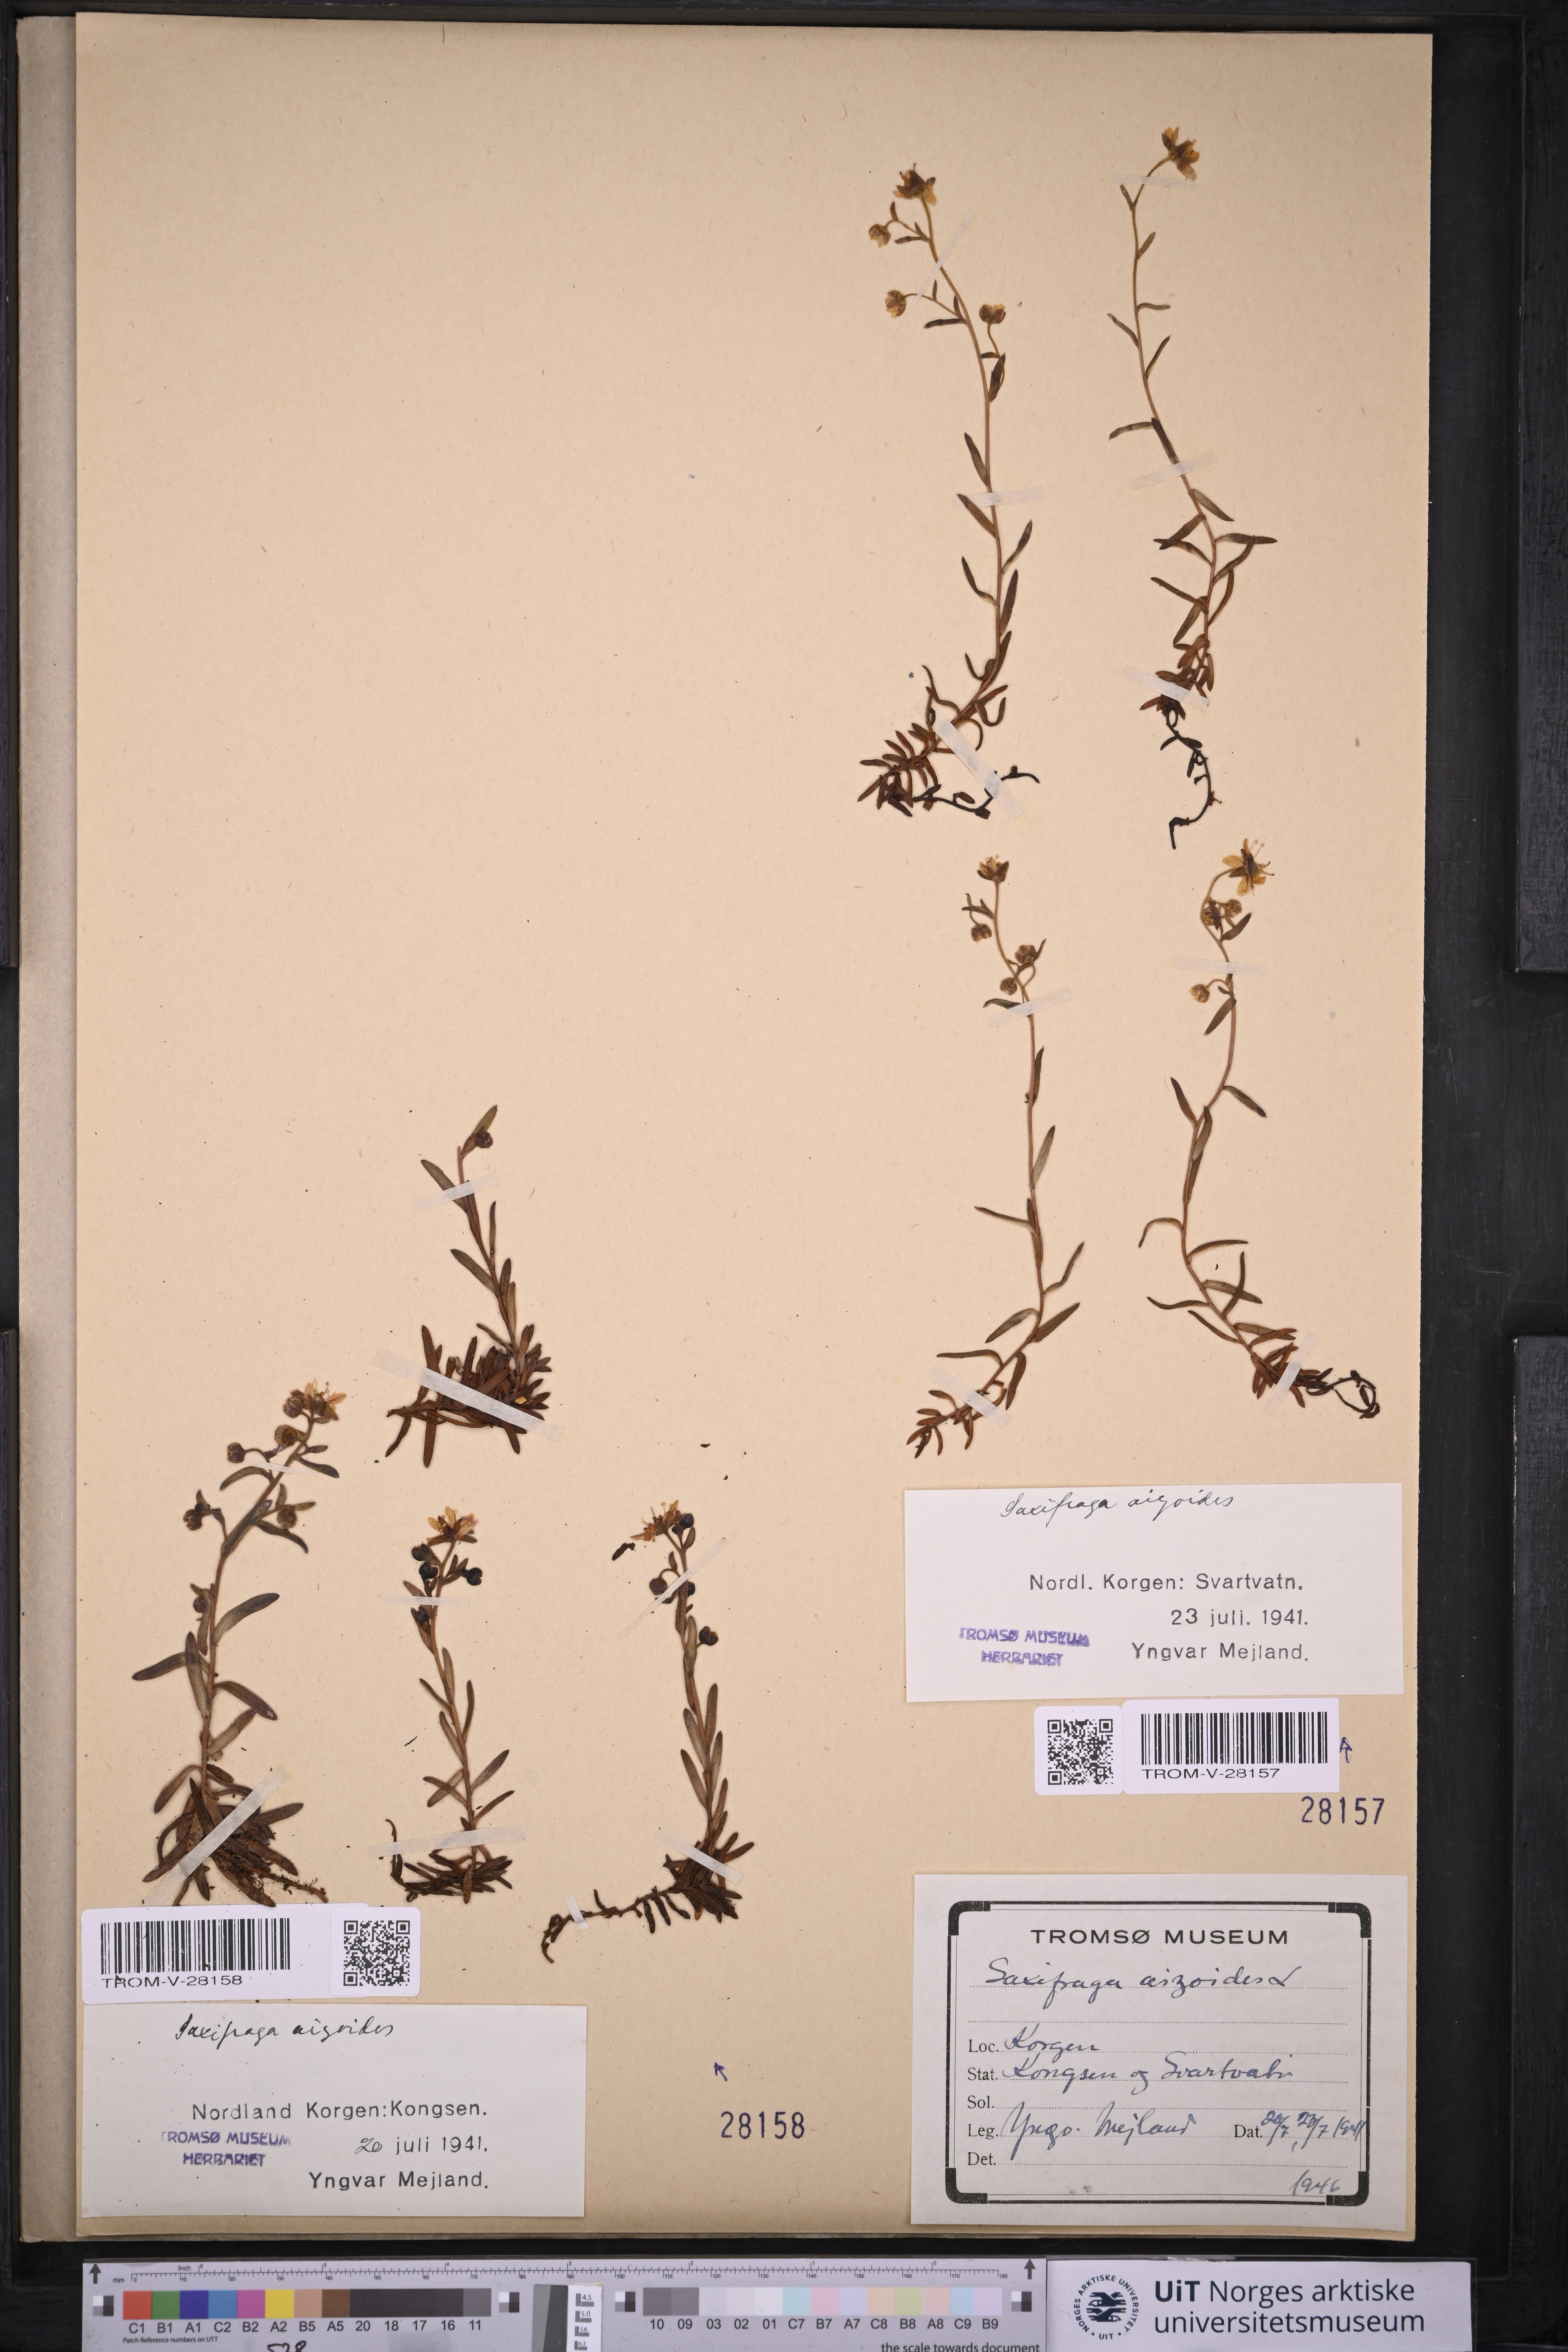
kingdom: Plantae
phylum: Tracheophyta
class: Magnoliopsida
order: Saxifragales
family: Saxifragaceae
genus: Saxifraga
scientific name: Saxifraga aizoides
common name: Yellow mountain saxifrage
